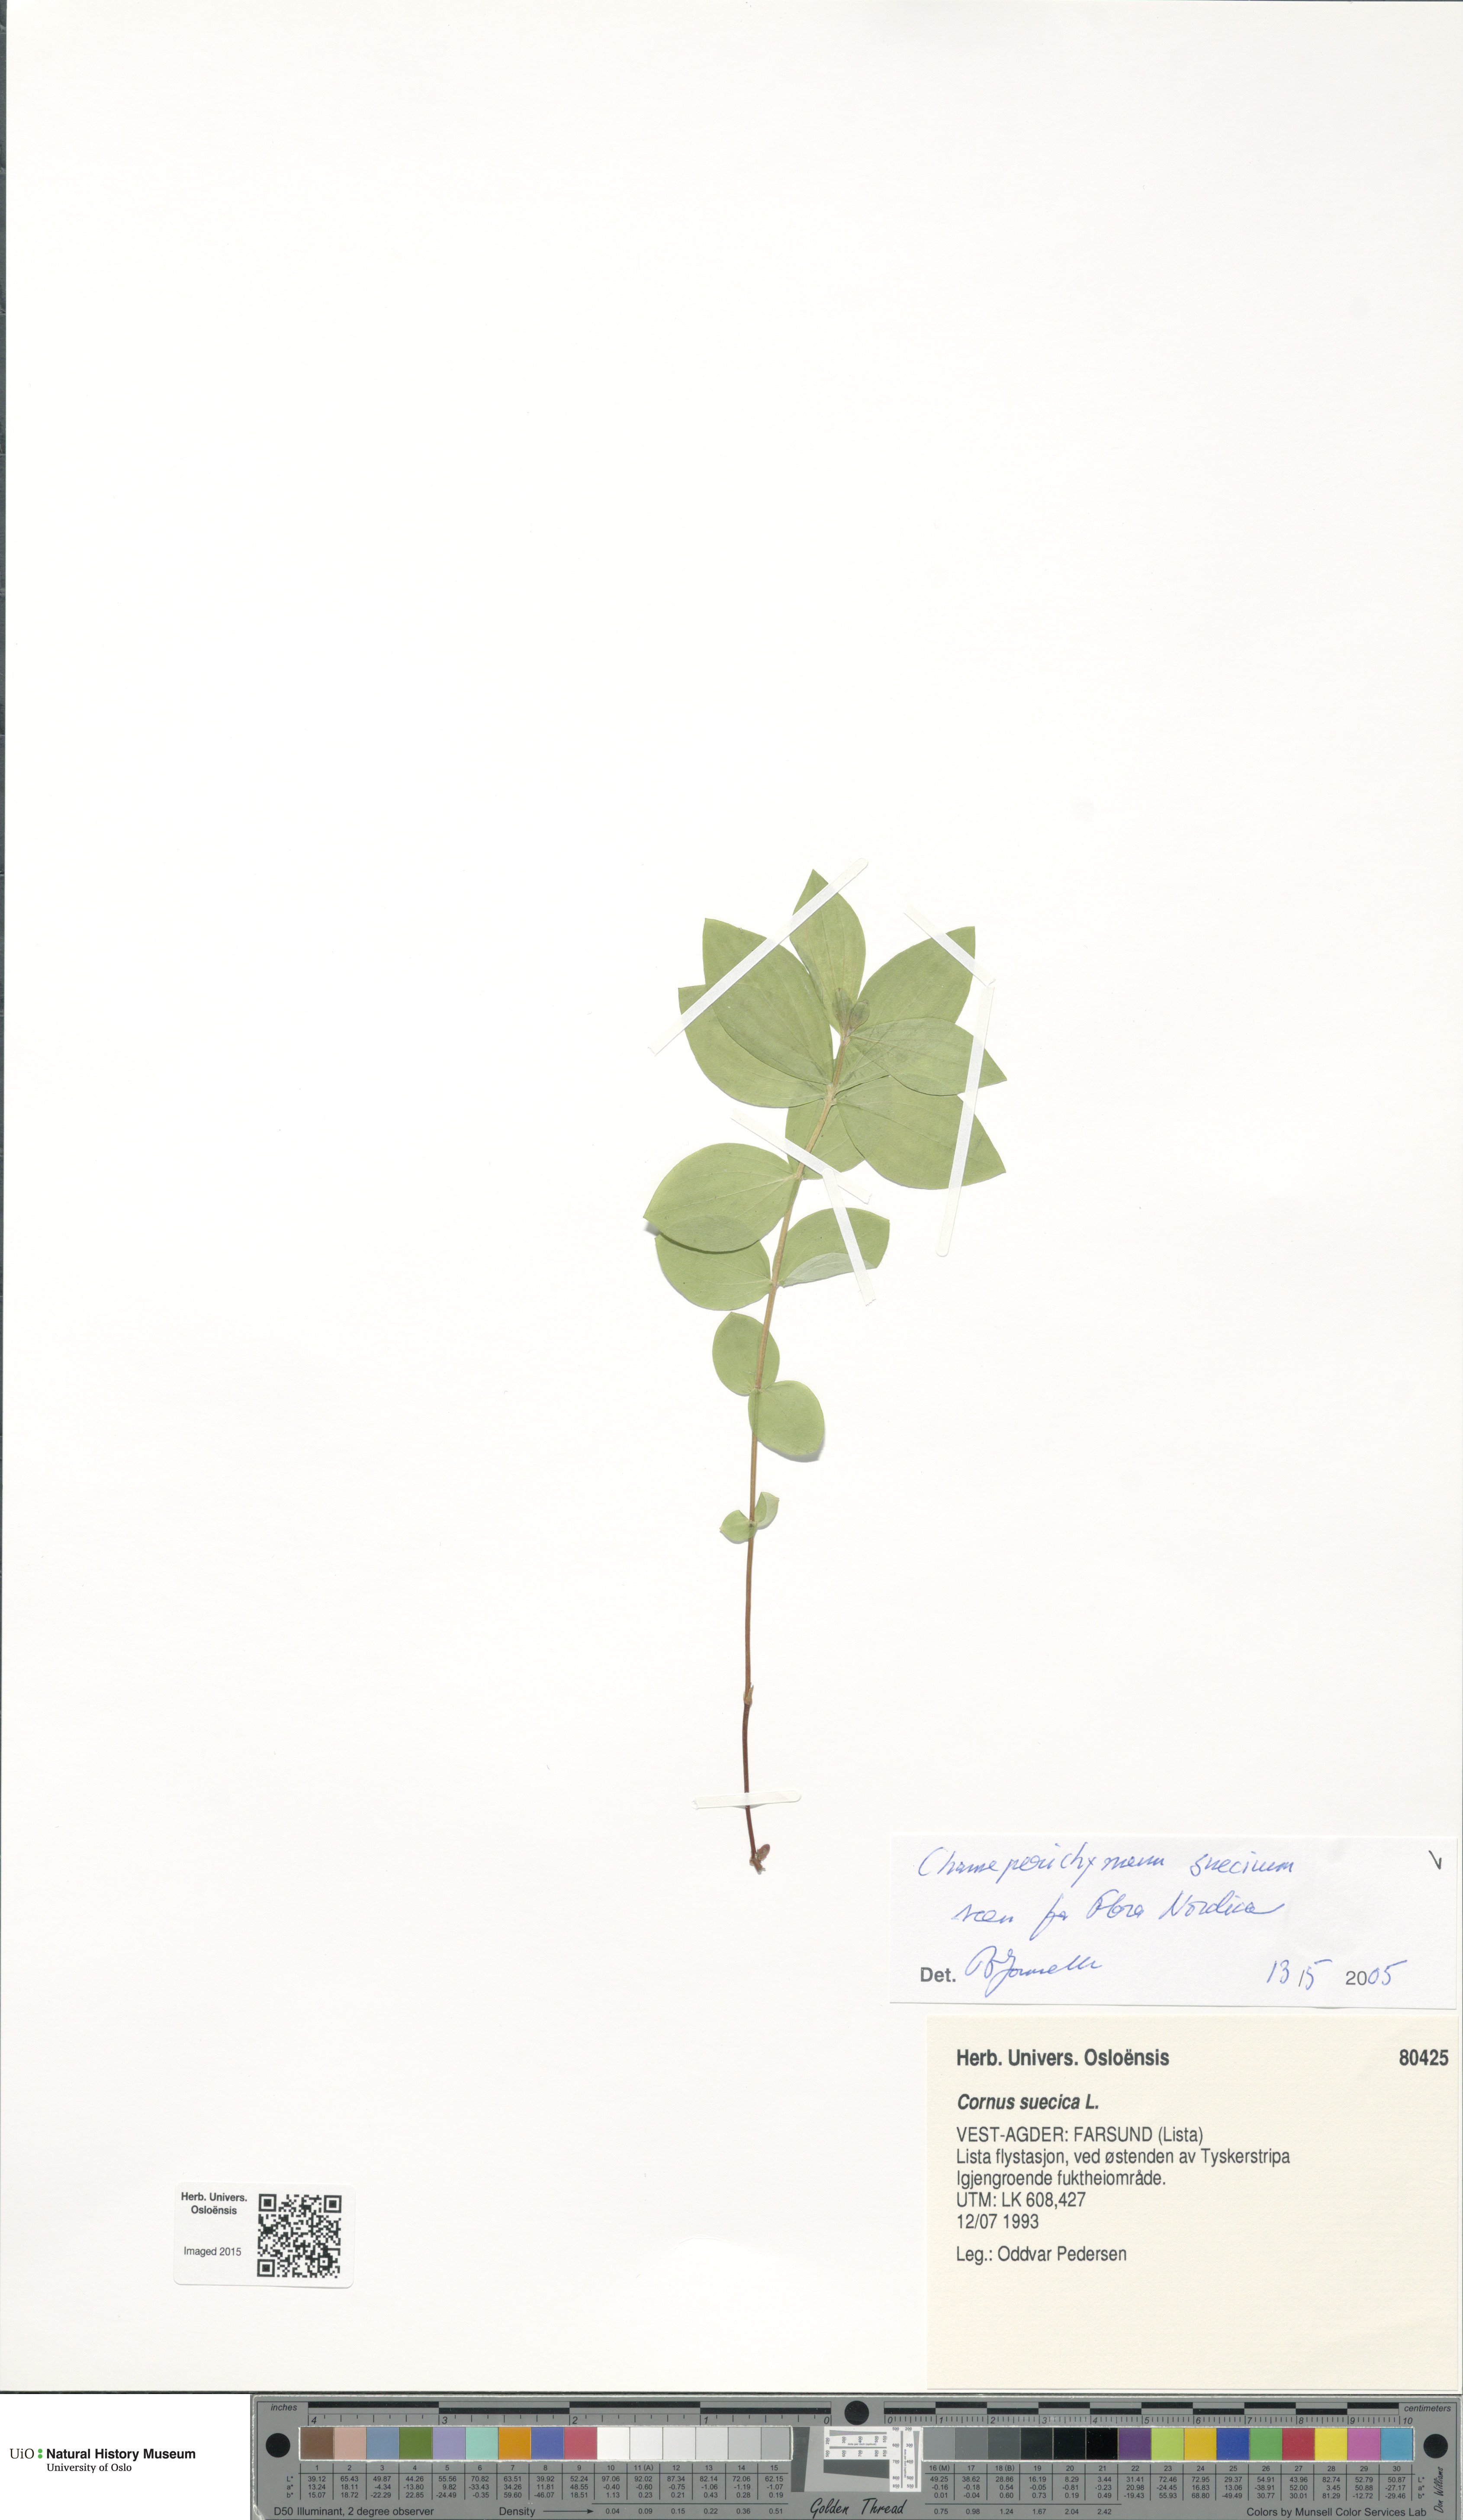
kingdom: Plantae
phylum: Tracheophyta
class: Magnoliopsida
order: Cornales
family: Cornaceae
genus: Cornus
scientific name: Cornus suecica
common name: Dwarf cornel
